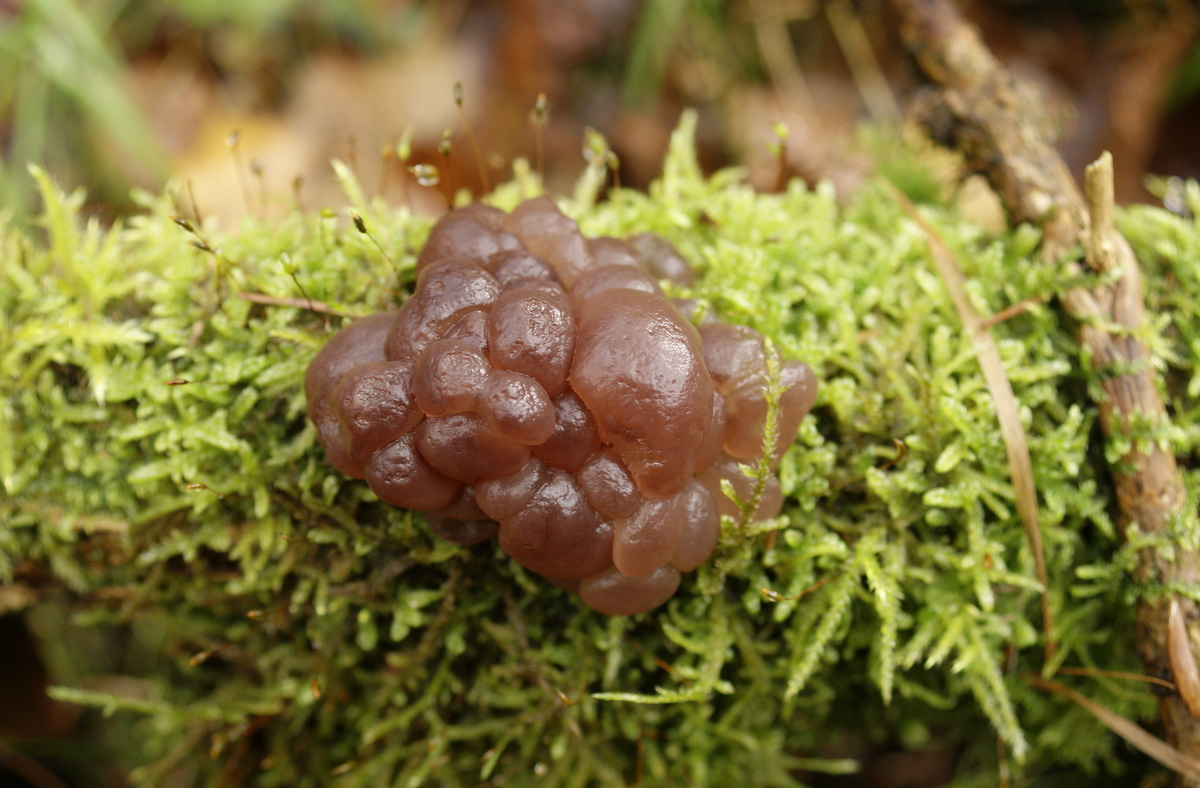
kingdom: Fungi
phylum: Ascomycota
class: Leotiomycetes
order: Helotiales
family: Gelatinodiscaceae
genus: Ascotremella
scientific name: Ascotremella faginea
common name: hjerne-bævreskive
